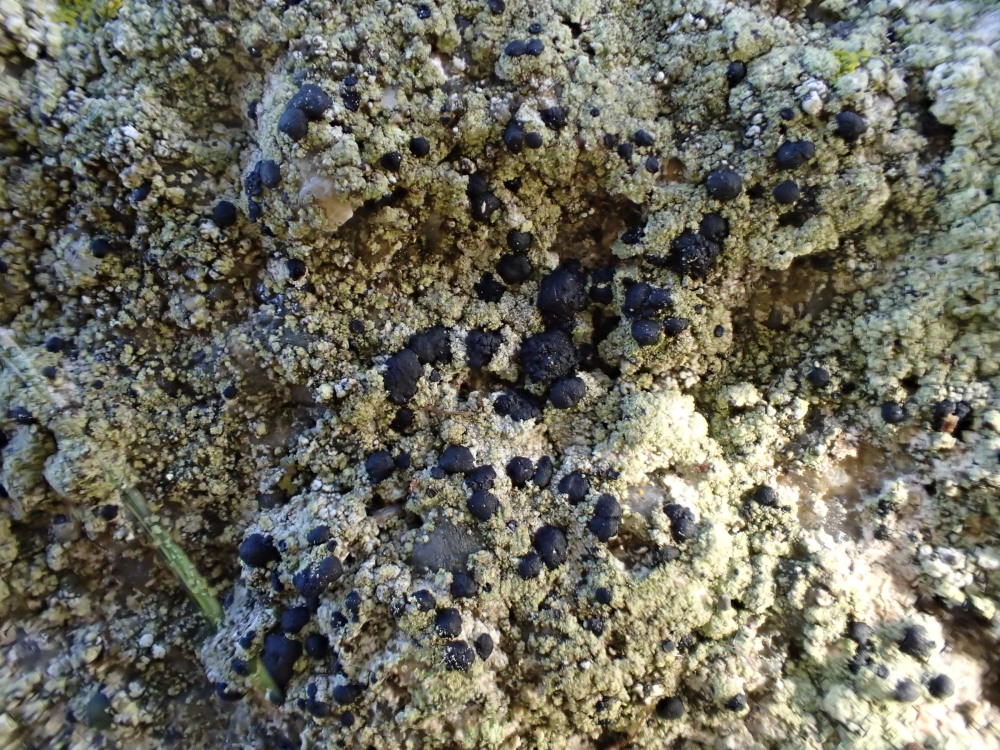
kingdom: Fungi
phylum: Ascomycota
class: Lecanoromycetes
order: Lecanorales
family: Lecanoraceae
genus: Lecidella
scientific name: Lecidella scabra
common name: skurvet skivelav
